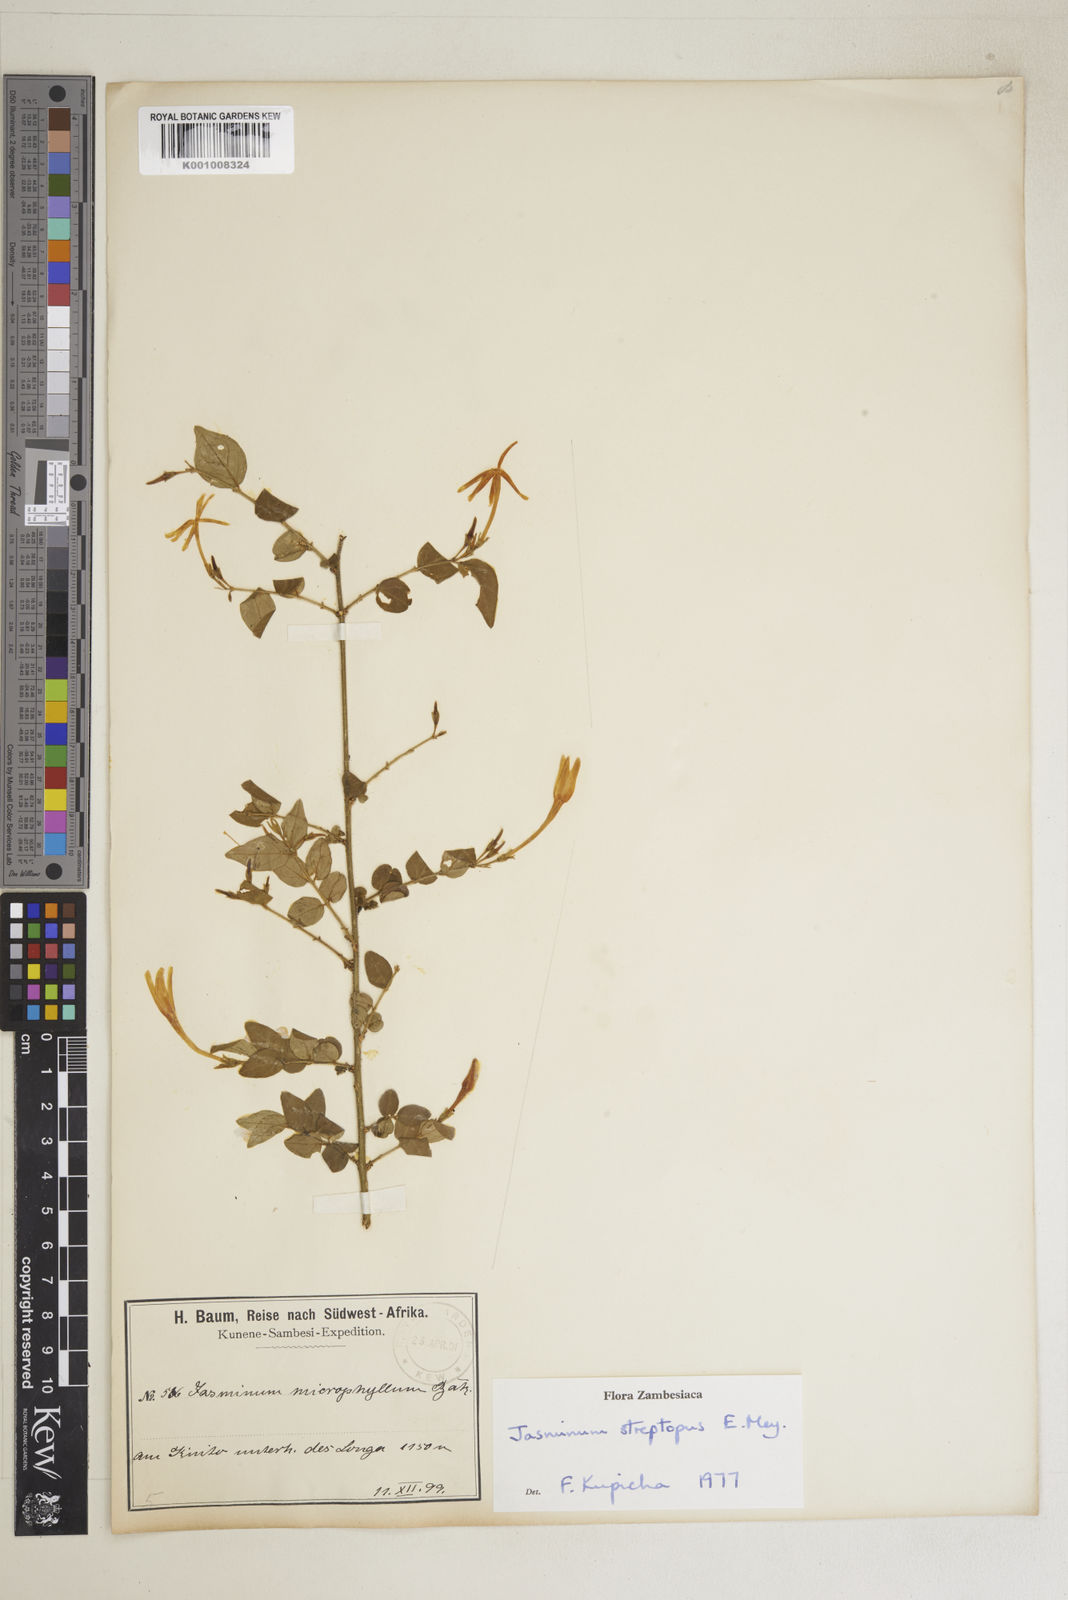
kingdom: Plantae
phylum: Tracheophyta
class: Magnoliopsida
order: Lamiales
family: Oleaceae
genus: Jasminum
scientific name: Jasminum streptopus
